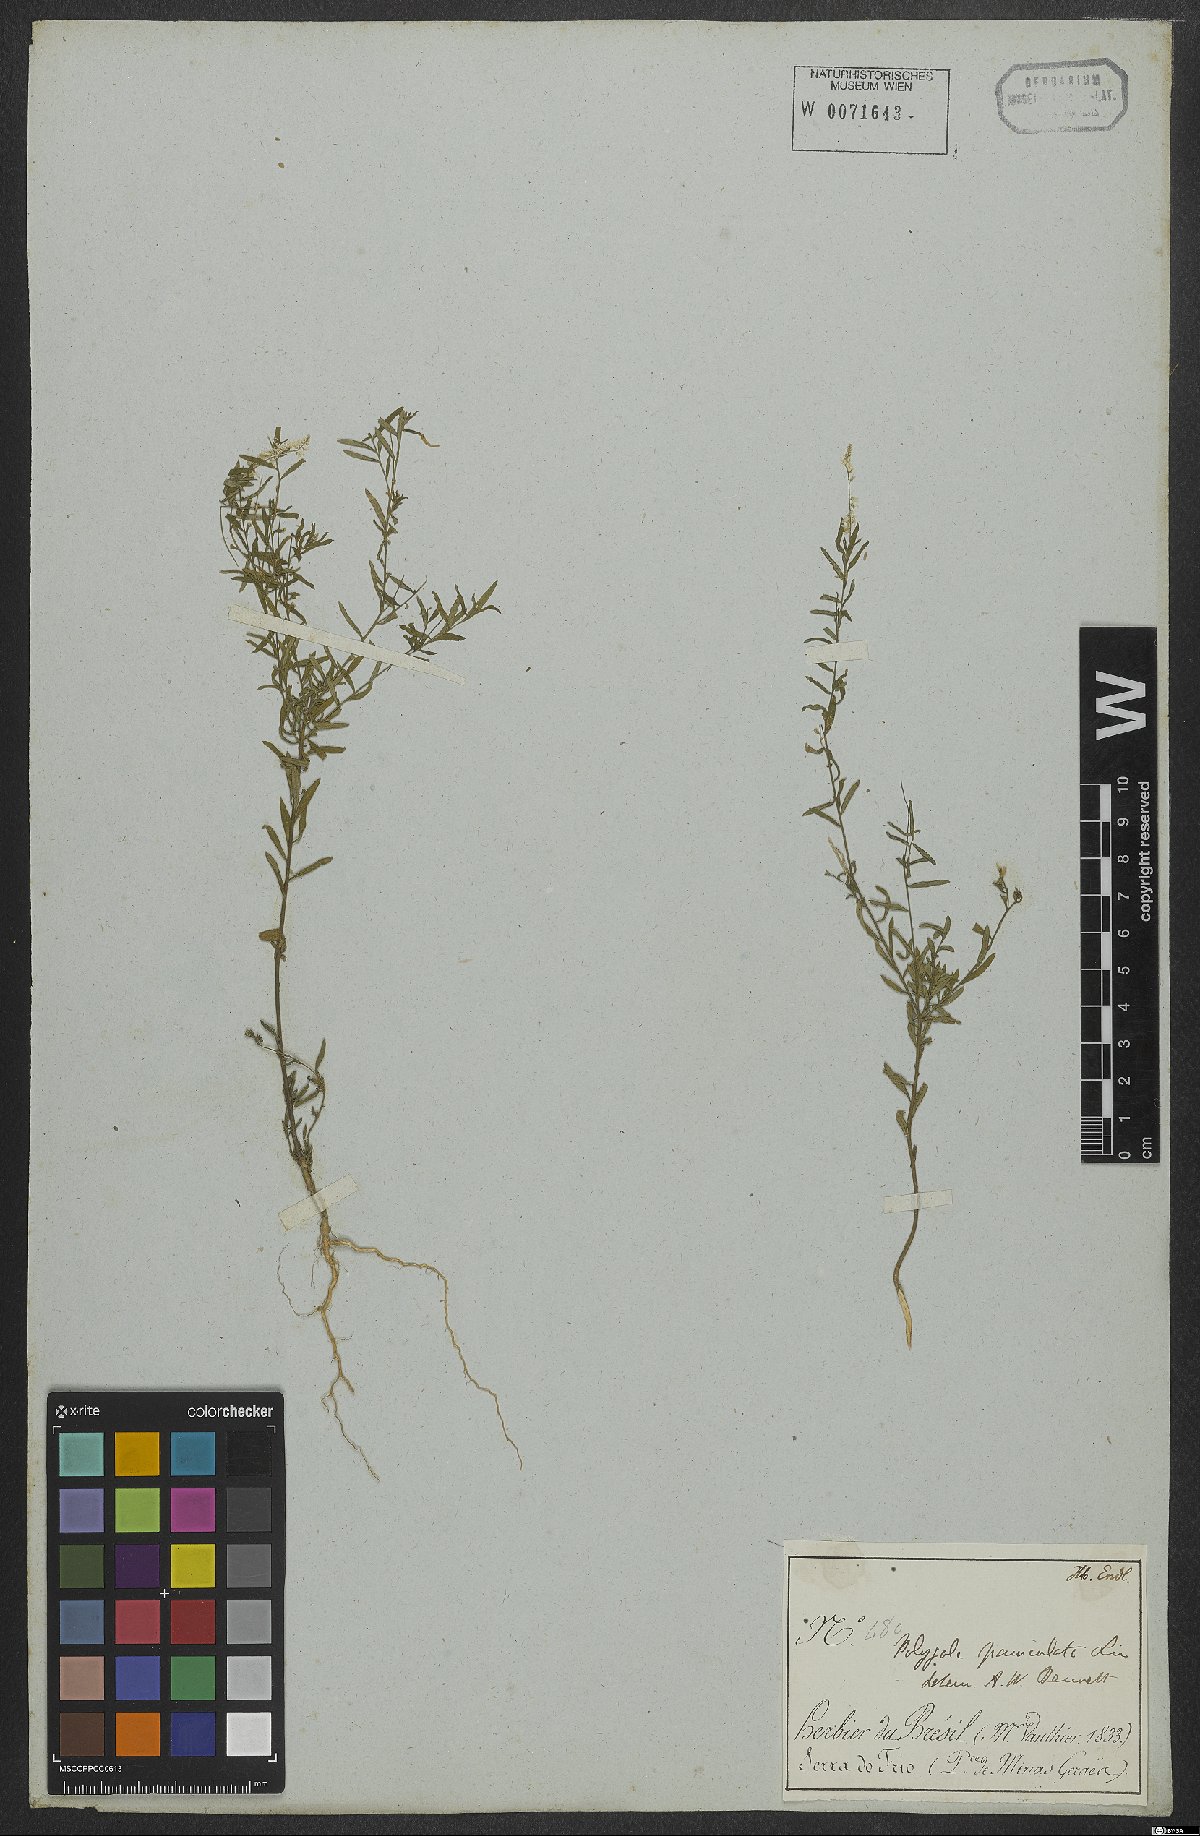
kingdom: Plantae
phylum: Tracheophyta
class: Magnoliopsida
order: Fabales
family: Polygalaceae
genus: Polygala
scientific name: Polygala exilis
